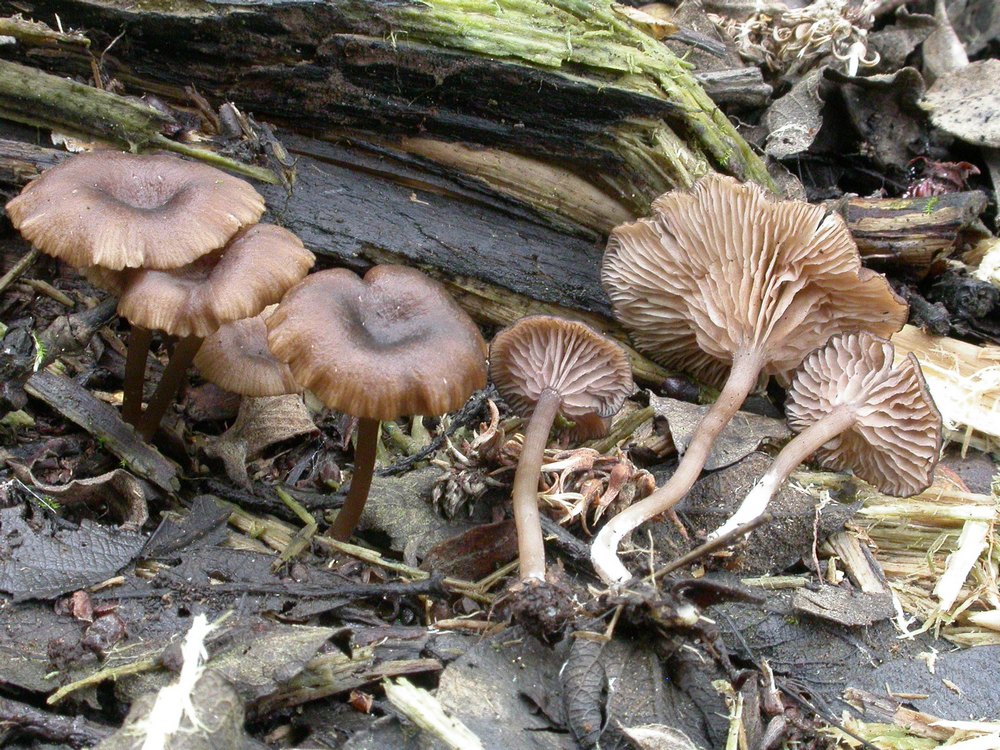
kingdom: Fungi
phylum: Basidiomycota
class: Agaricomycetes
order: Agaricales
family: Entolomataceae
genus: Entoloma
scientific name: Entoloma caccabus
